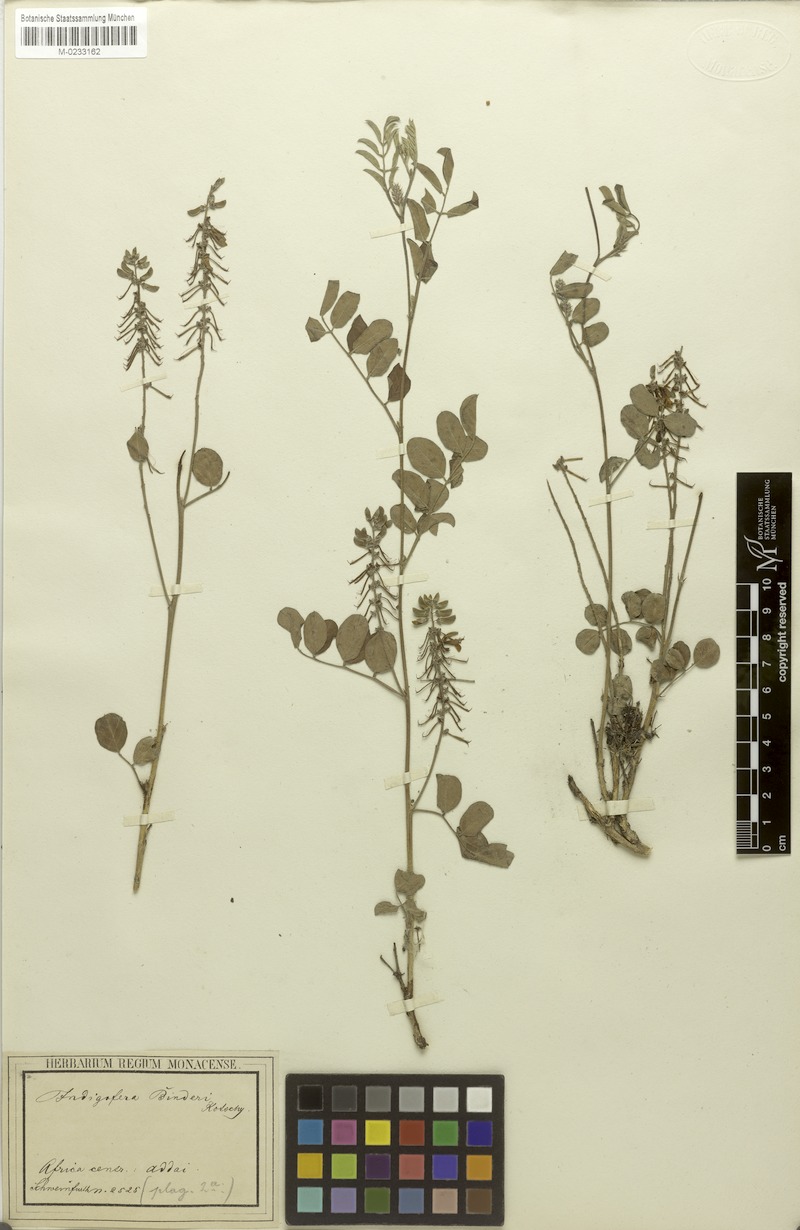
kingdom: Plantae
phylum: Tracheophyta
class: Magnoliopsida
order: Fabales
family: Fabaceae
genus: Indigofera
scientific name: Indigofera binderi
